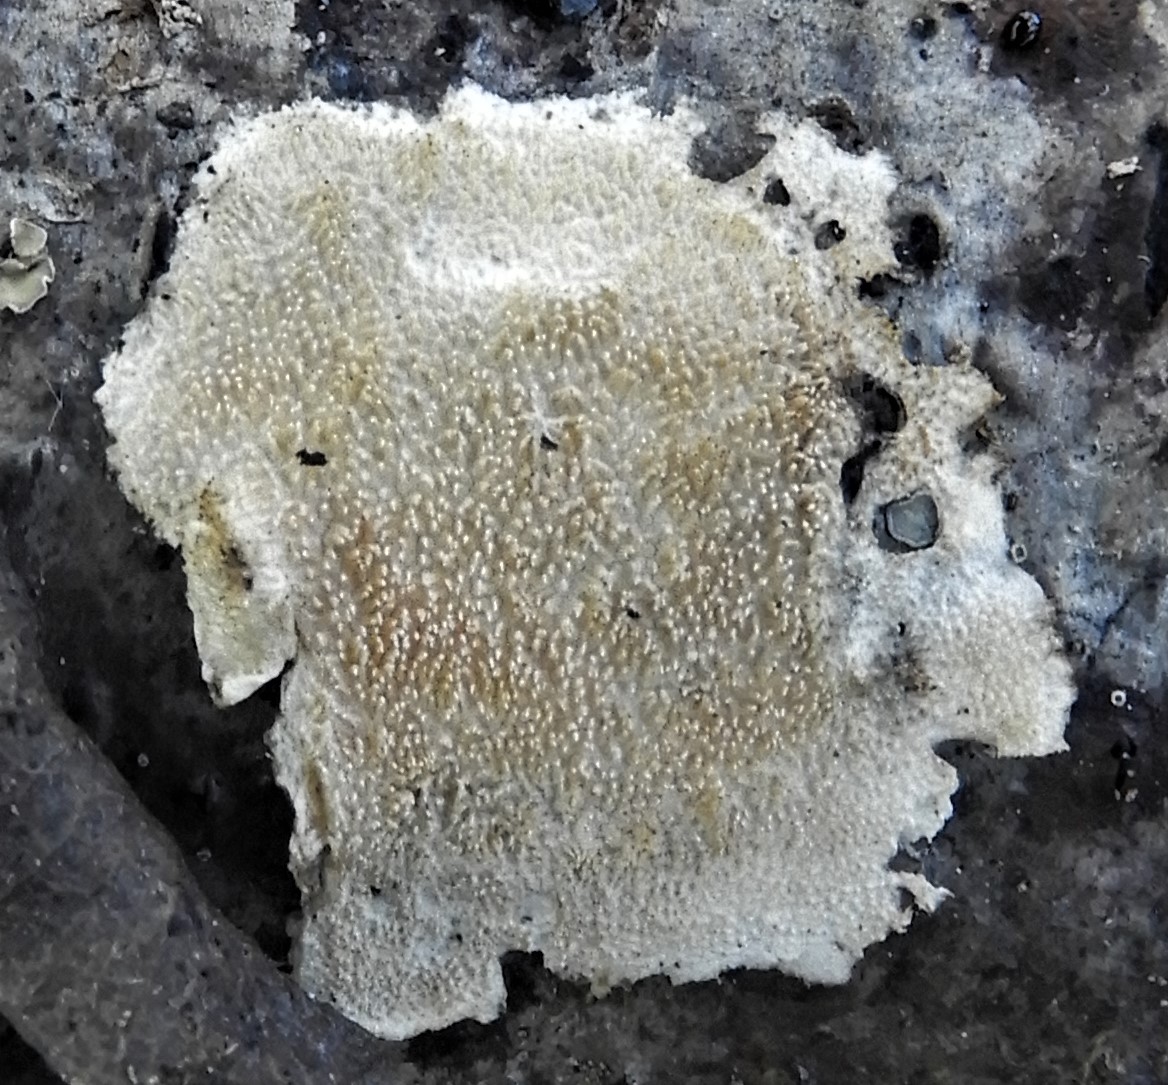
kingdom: Fungi
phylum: Basidiomycota
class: Agaricomycetes
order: Polyporales
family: Steccherinaceae
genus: Steccherinum
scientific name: Steccherinum ochraceum
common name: almindelig skønpig
